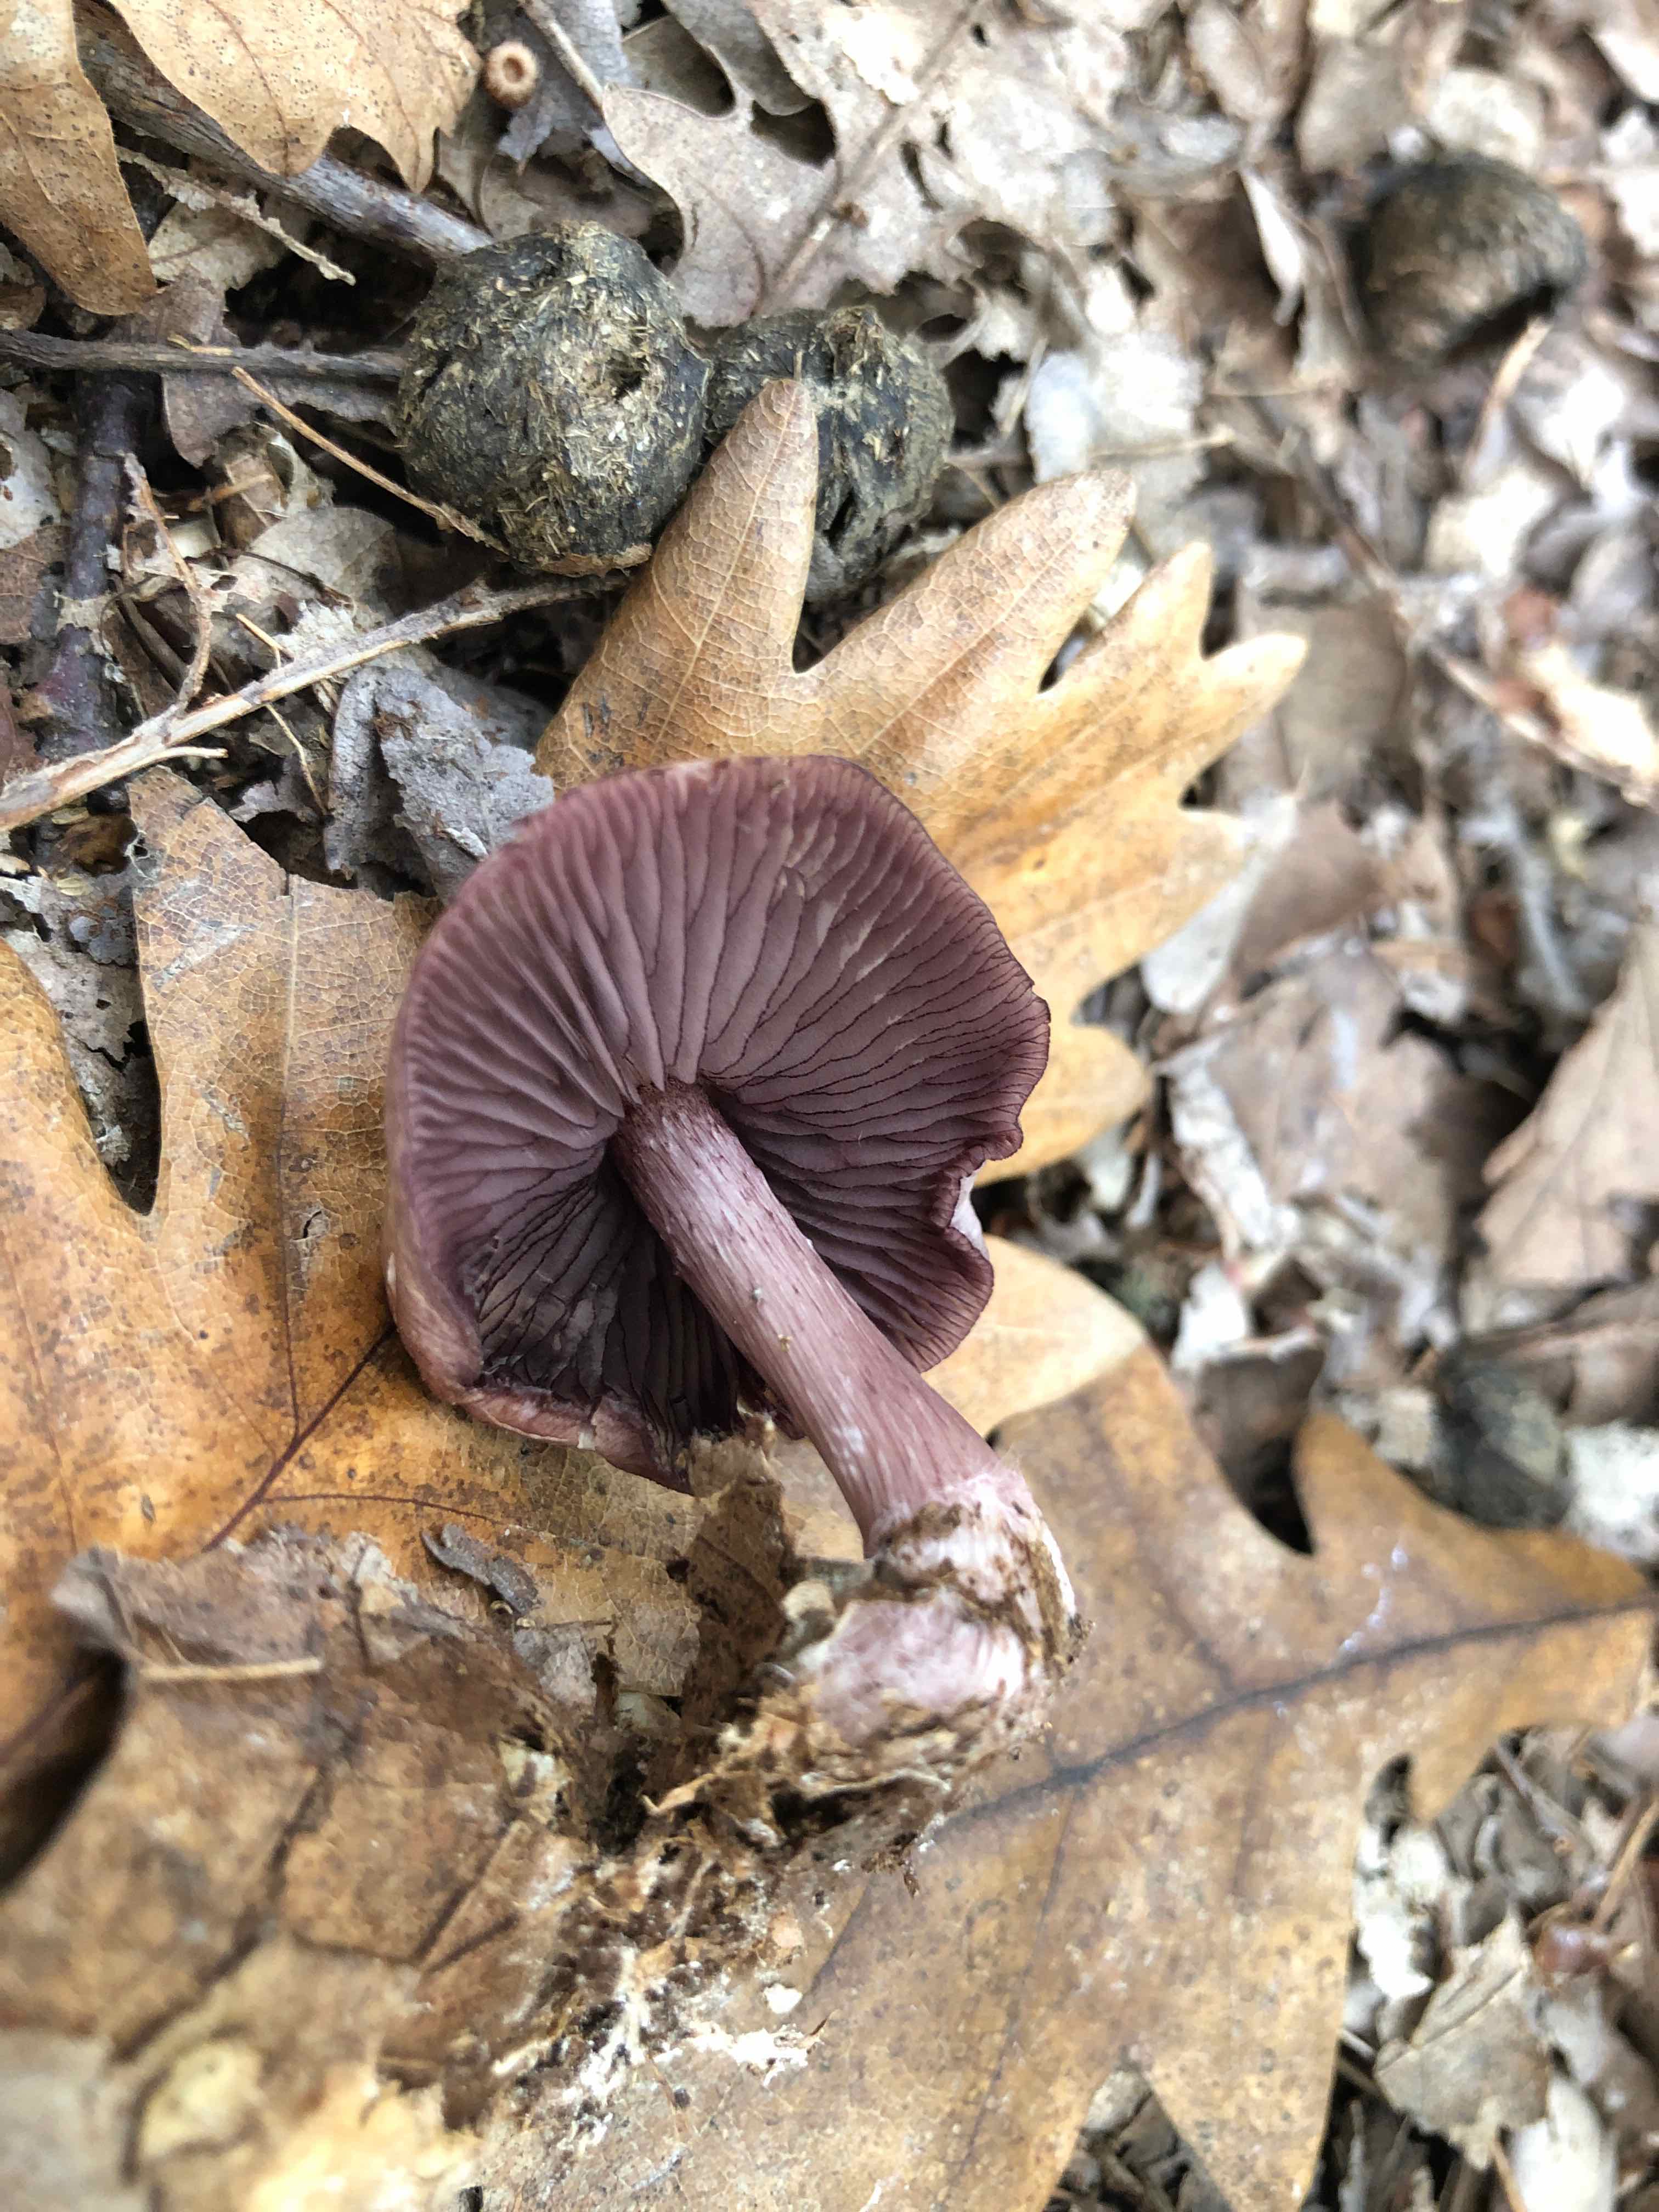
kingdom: Fungi
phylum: Basidiomycota
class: Agaricomycetes
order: Agaricales
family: Mycenaceae
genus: Mycena
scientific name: Mycena pelianthina
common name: mørkbladet huesvamp
